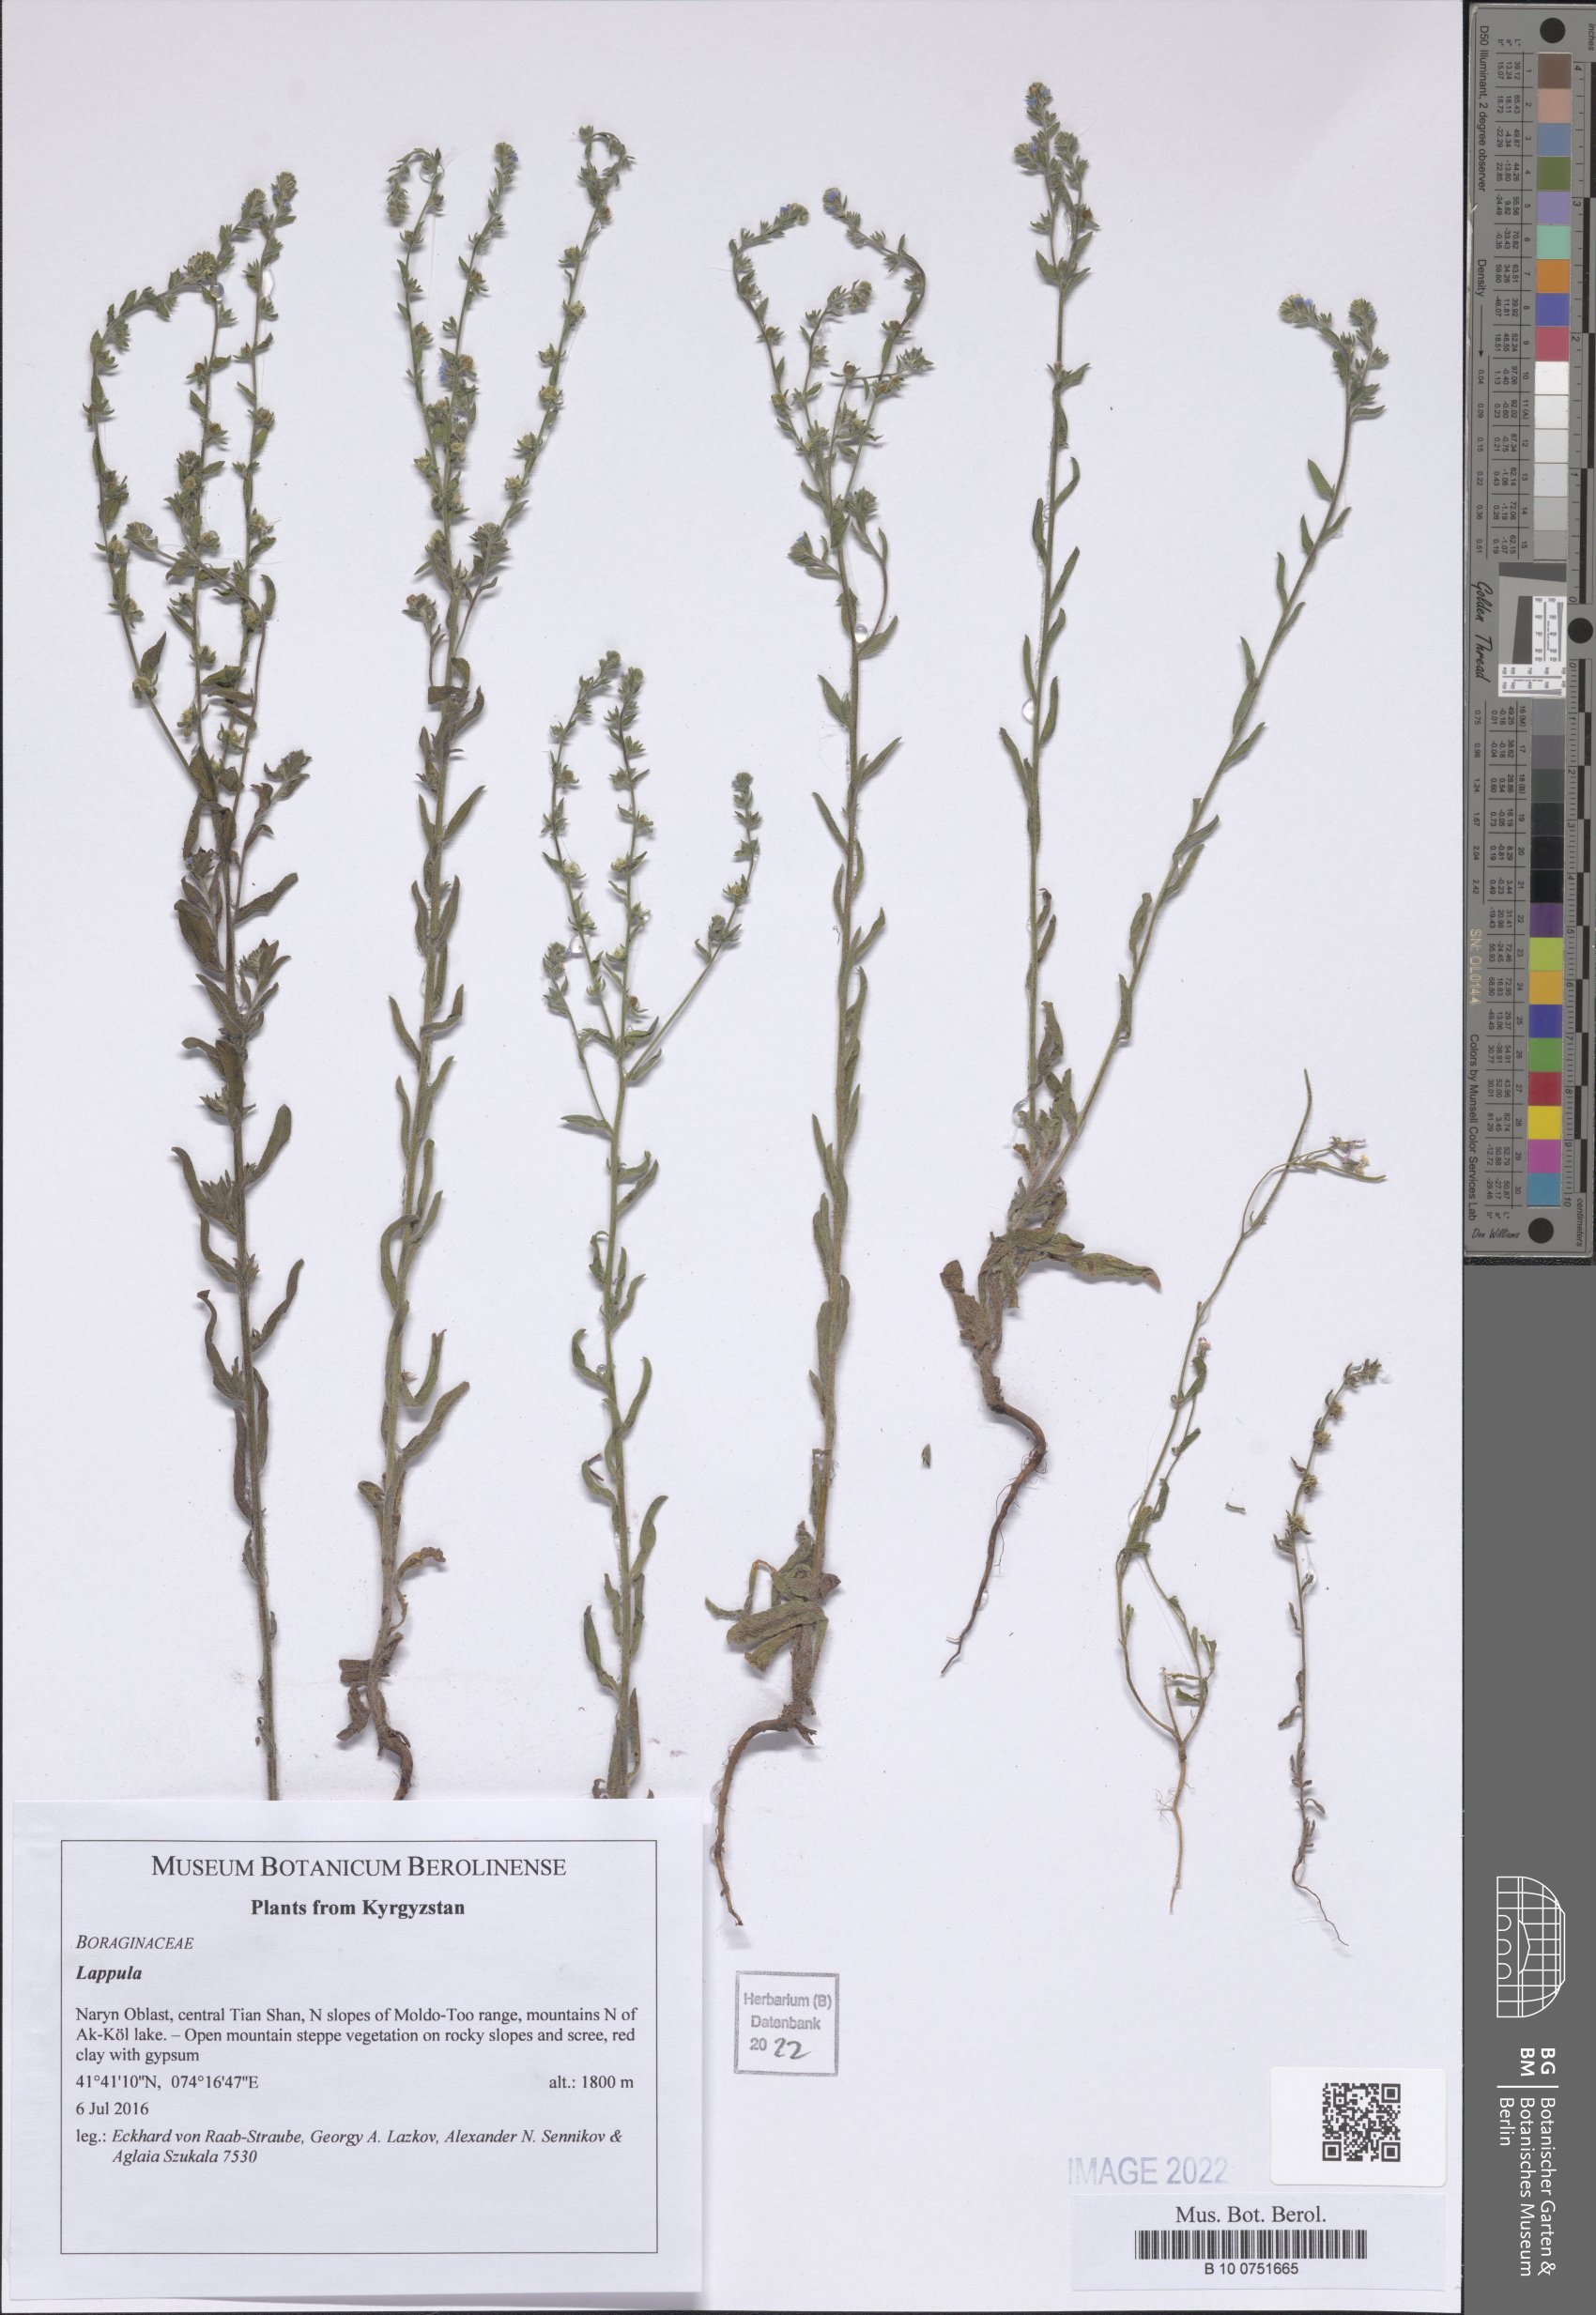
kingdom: Plantae
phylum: Tracheophyta
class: Magnoliopsida
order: Boraginales
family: Boraginaceae
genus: Lappula
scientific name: Lappula
